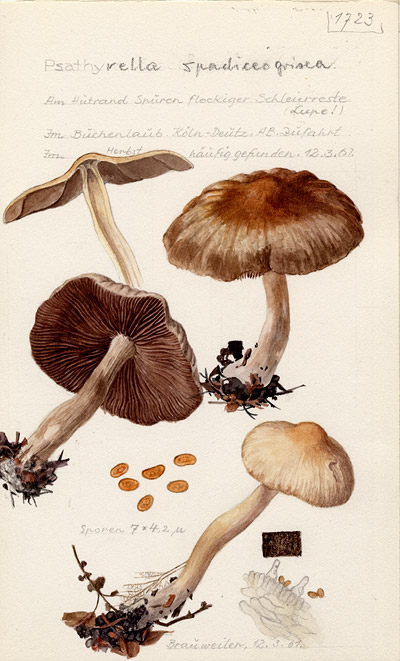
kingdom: Fungi
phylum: Basidiomycota
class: Agaricomycetes
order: Agaricales
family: Psathyrellaceae
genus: Psathyrella
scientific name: Psathyrella spadiceogrisea
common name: Spring brittlestem
